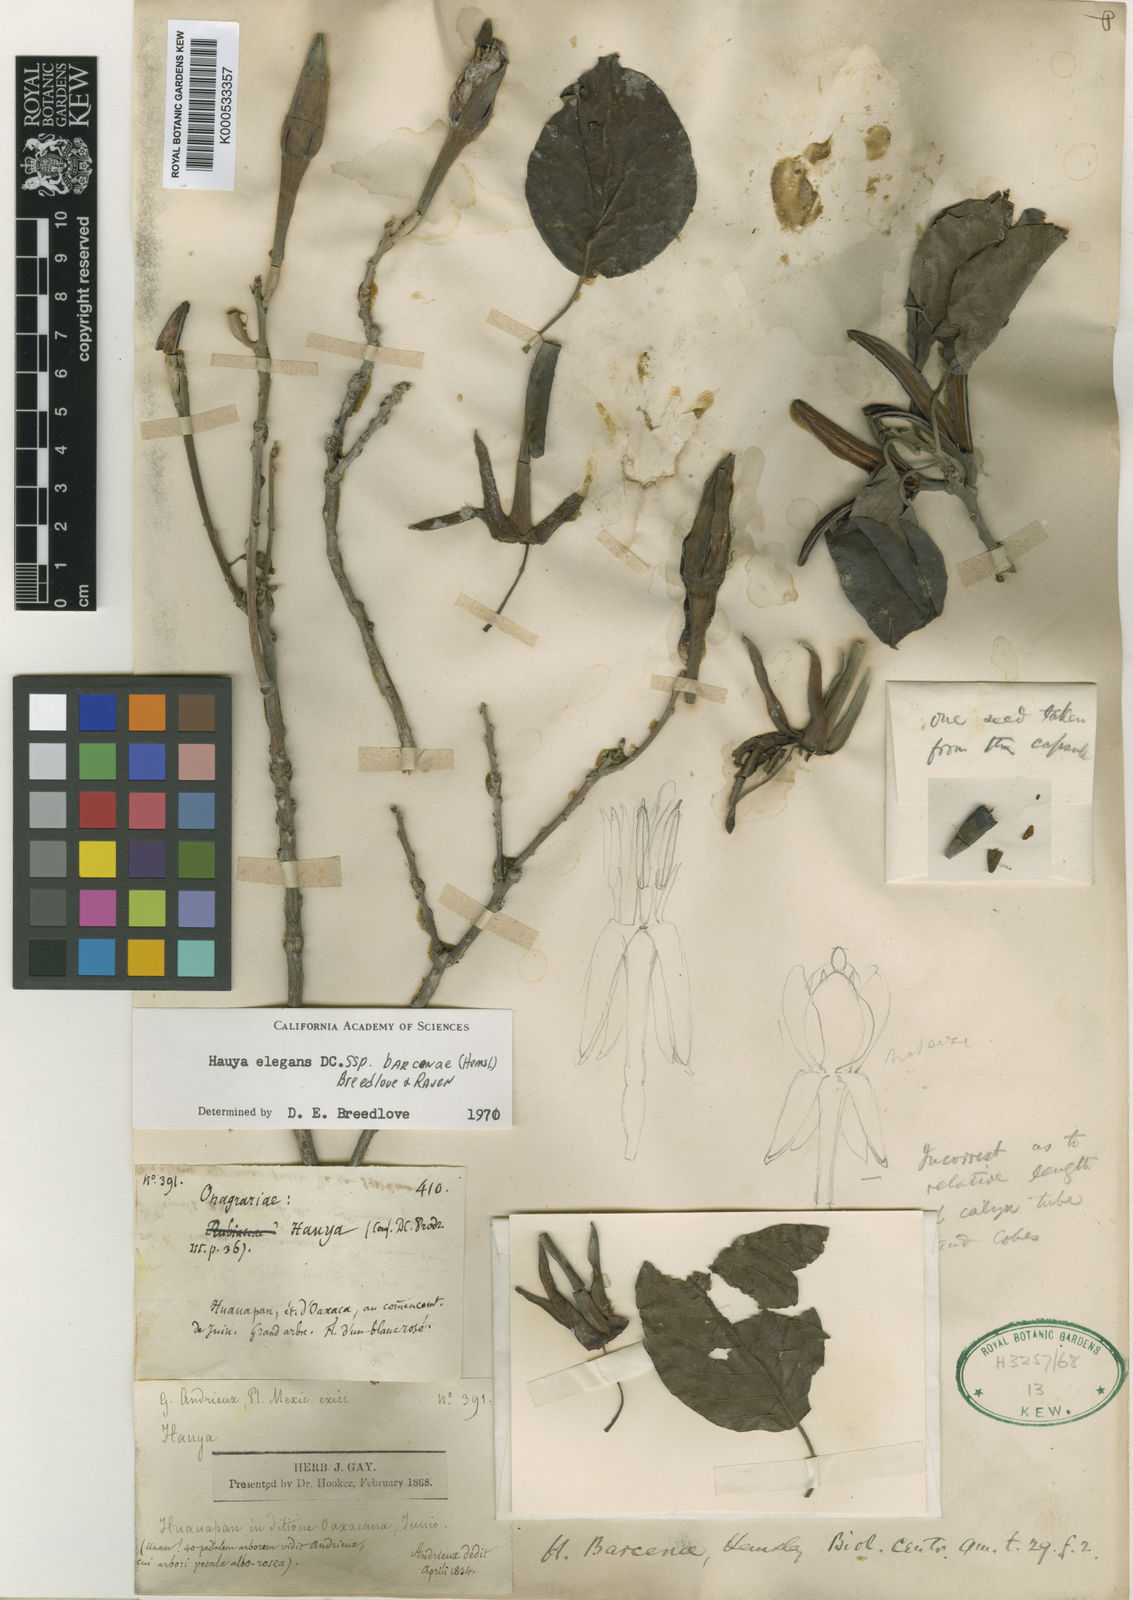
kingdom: Plantae
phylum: Tracheophyta
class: Magnoliopsida
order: Myrtales
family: Onagraceae
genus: Hauya
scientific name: Hauya elegans
